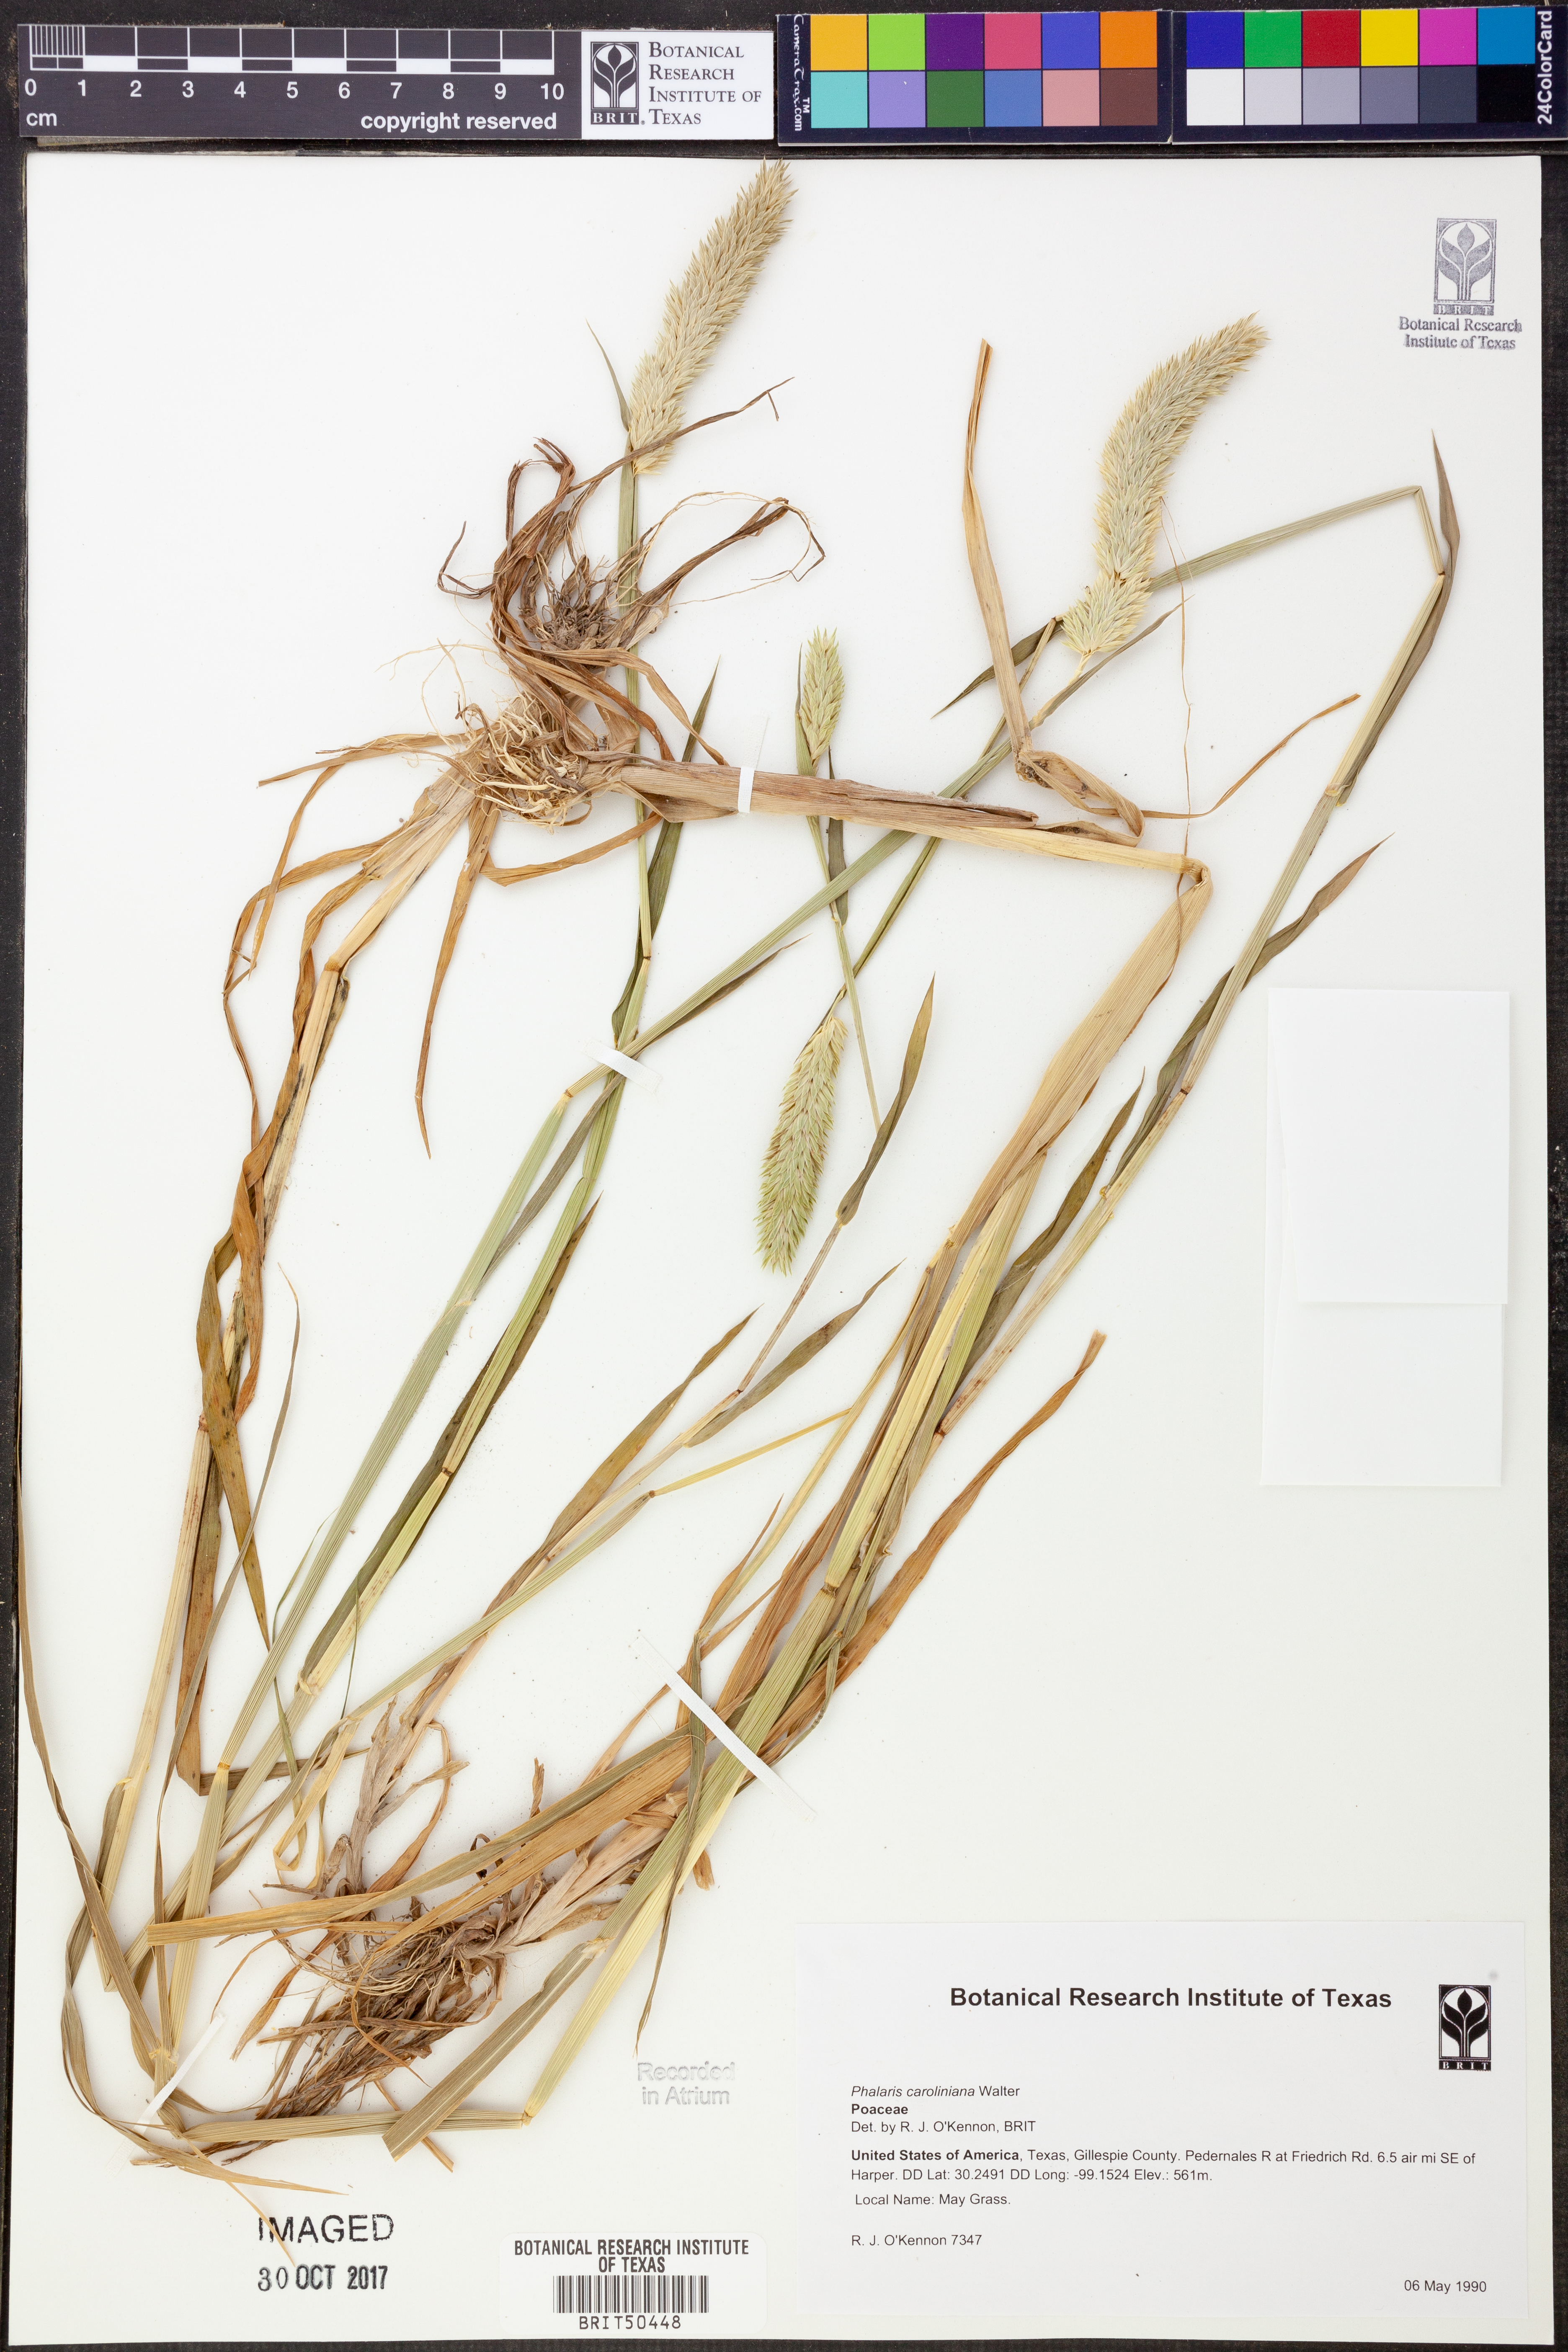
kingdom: Plantae
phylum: Tracheophyta
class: Liliopsida
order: Poales
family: Poaceae
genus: Phalaris
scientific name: Phalaris caroliniana
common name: May grass
